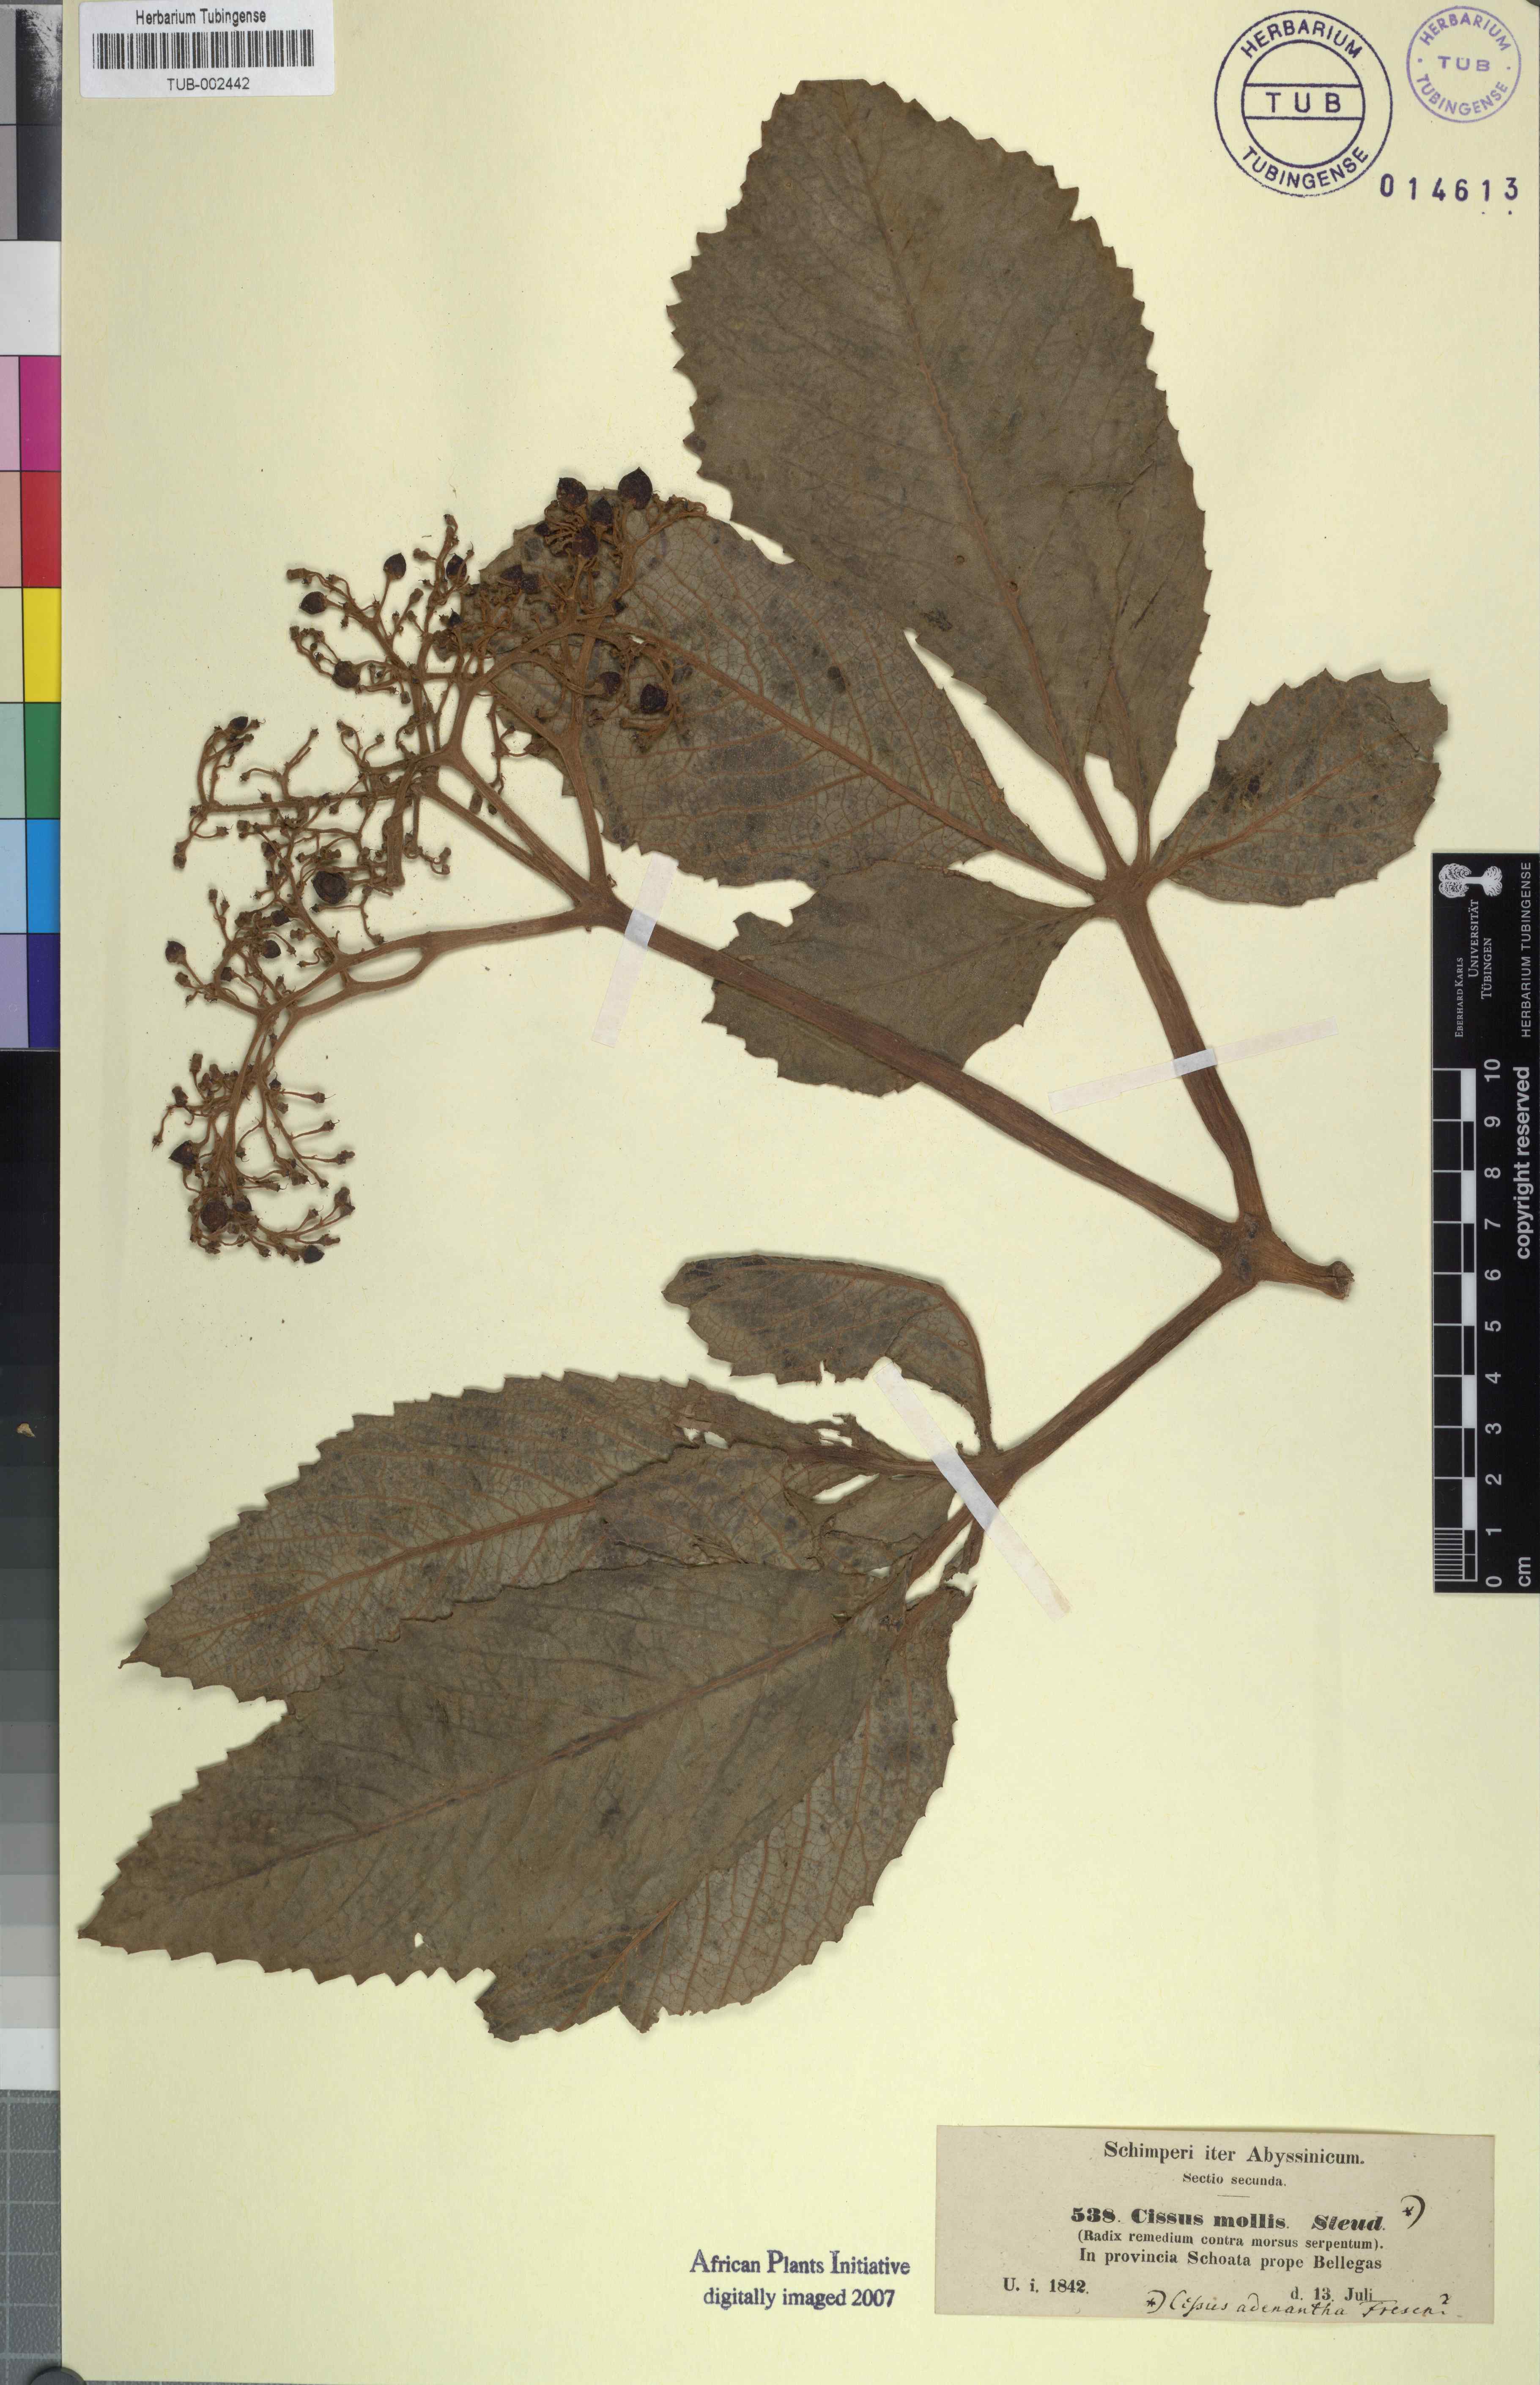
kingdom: Plantae
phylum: Tracheophyta
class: Magnoliopsida
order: Vitales
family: Vitaceae
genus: Cyphostemma
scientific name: Cyphostemma molle
